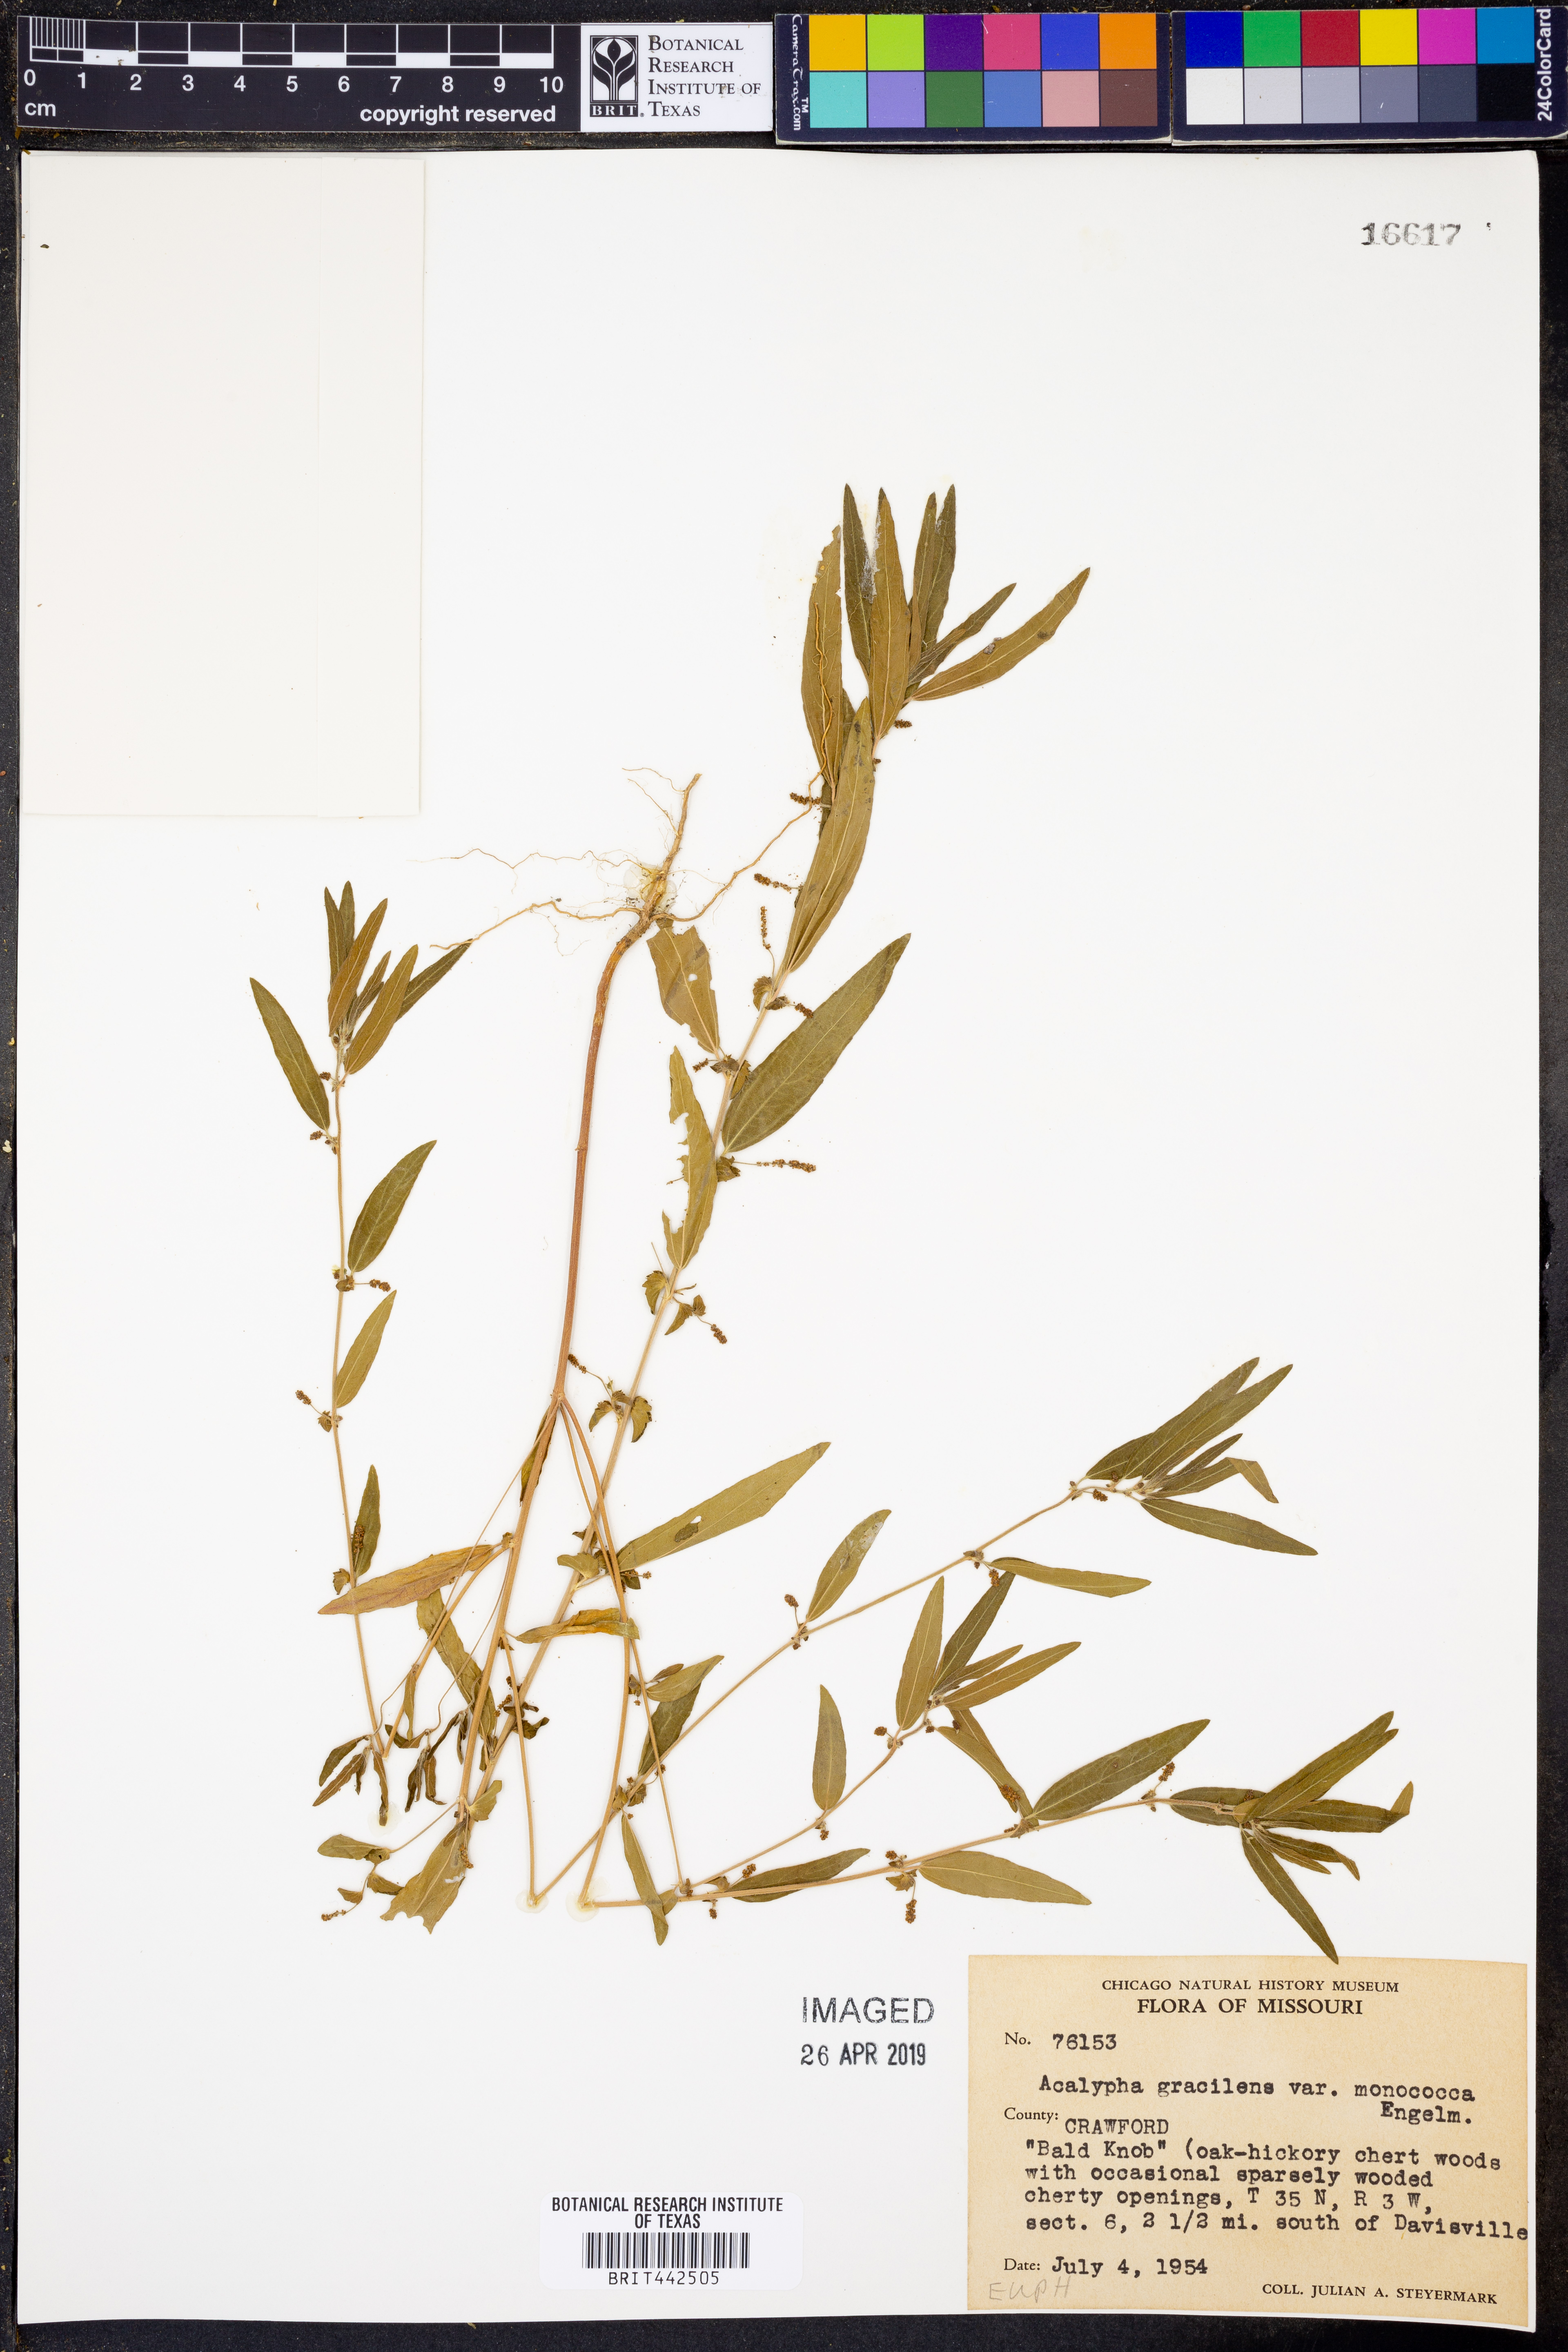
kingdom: Plantae
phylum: Tracheophyta
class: Magnoliopsida
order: Malpighiales
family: Euphorbiaceae
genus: Acalypha
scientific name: Acalypha monococca
